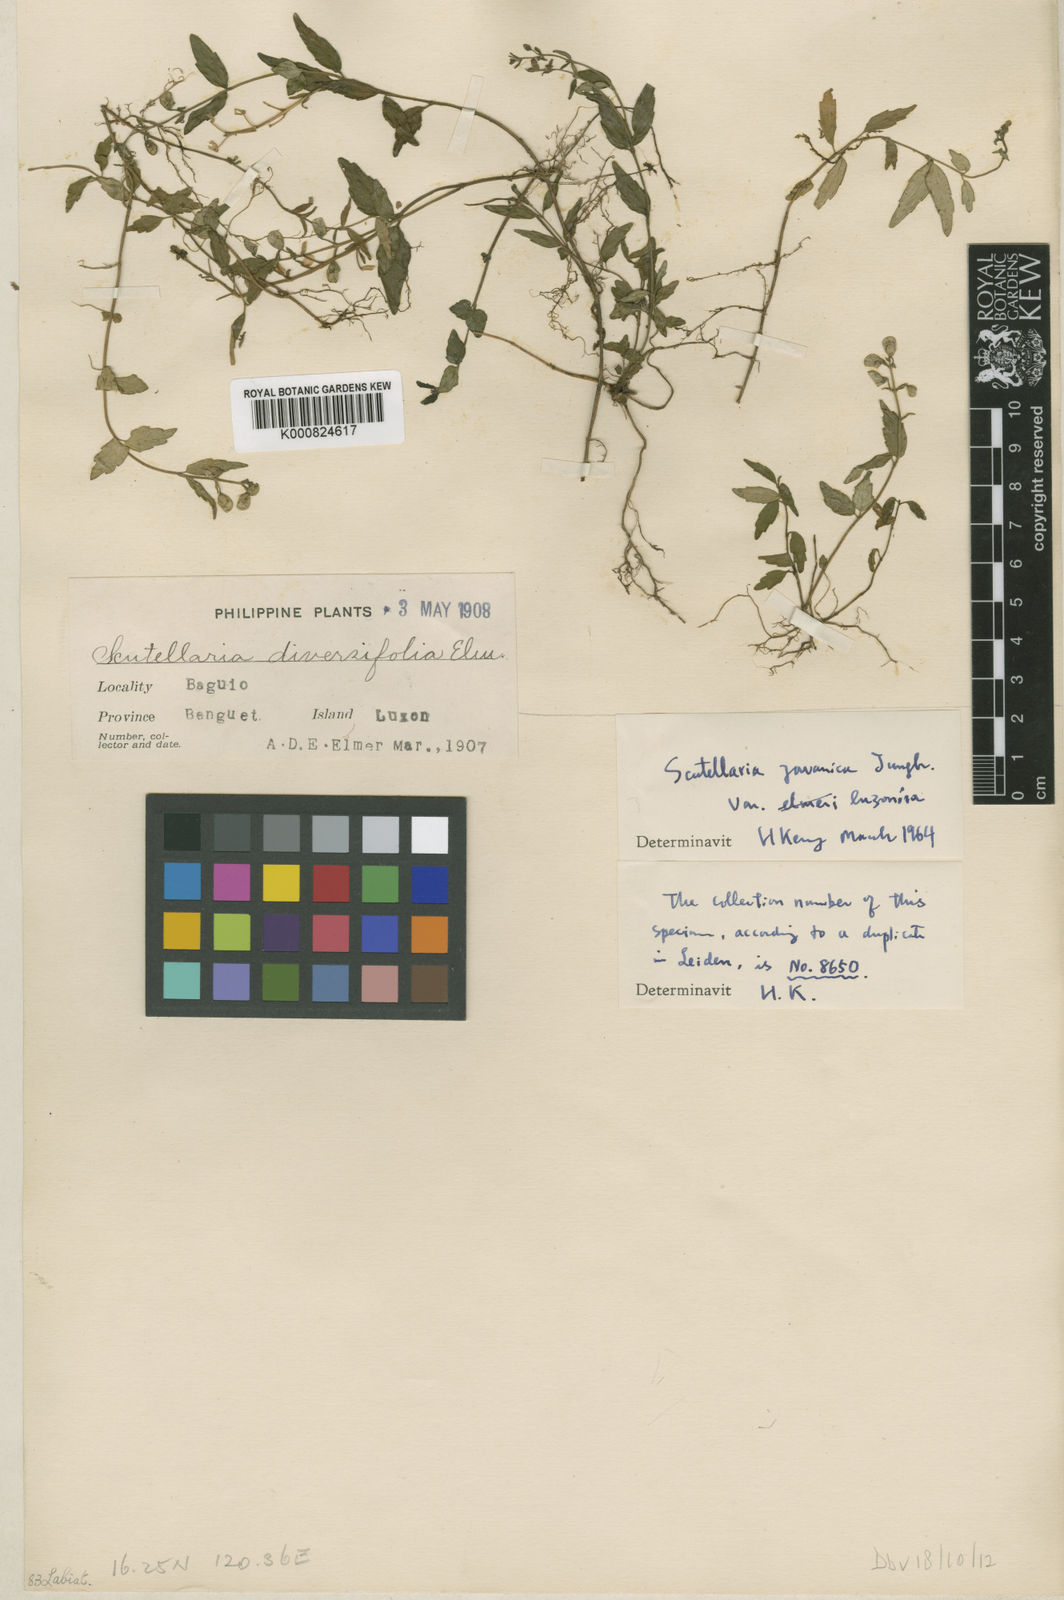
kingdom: Plantae
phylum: Tracheophyta
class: Magnoliopsida
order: Lamiales
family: Lamiaceae
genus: Scutellaria
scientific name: Scutellaria javanica
